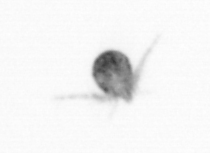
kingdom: Animalia
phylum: Arthropoda
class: Copepoda
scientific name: Copepoda
